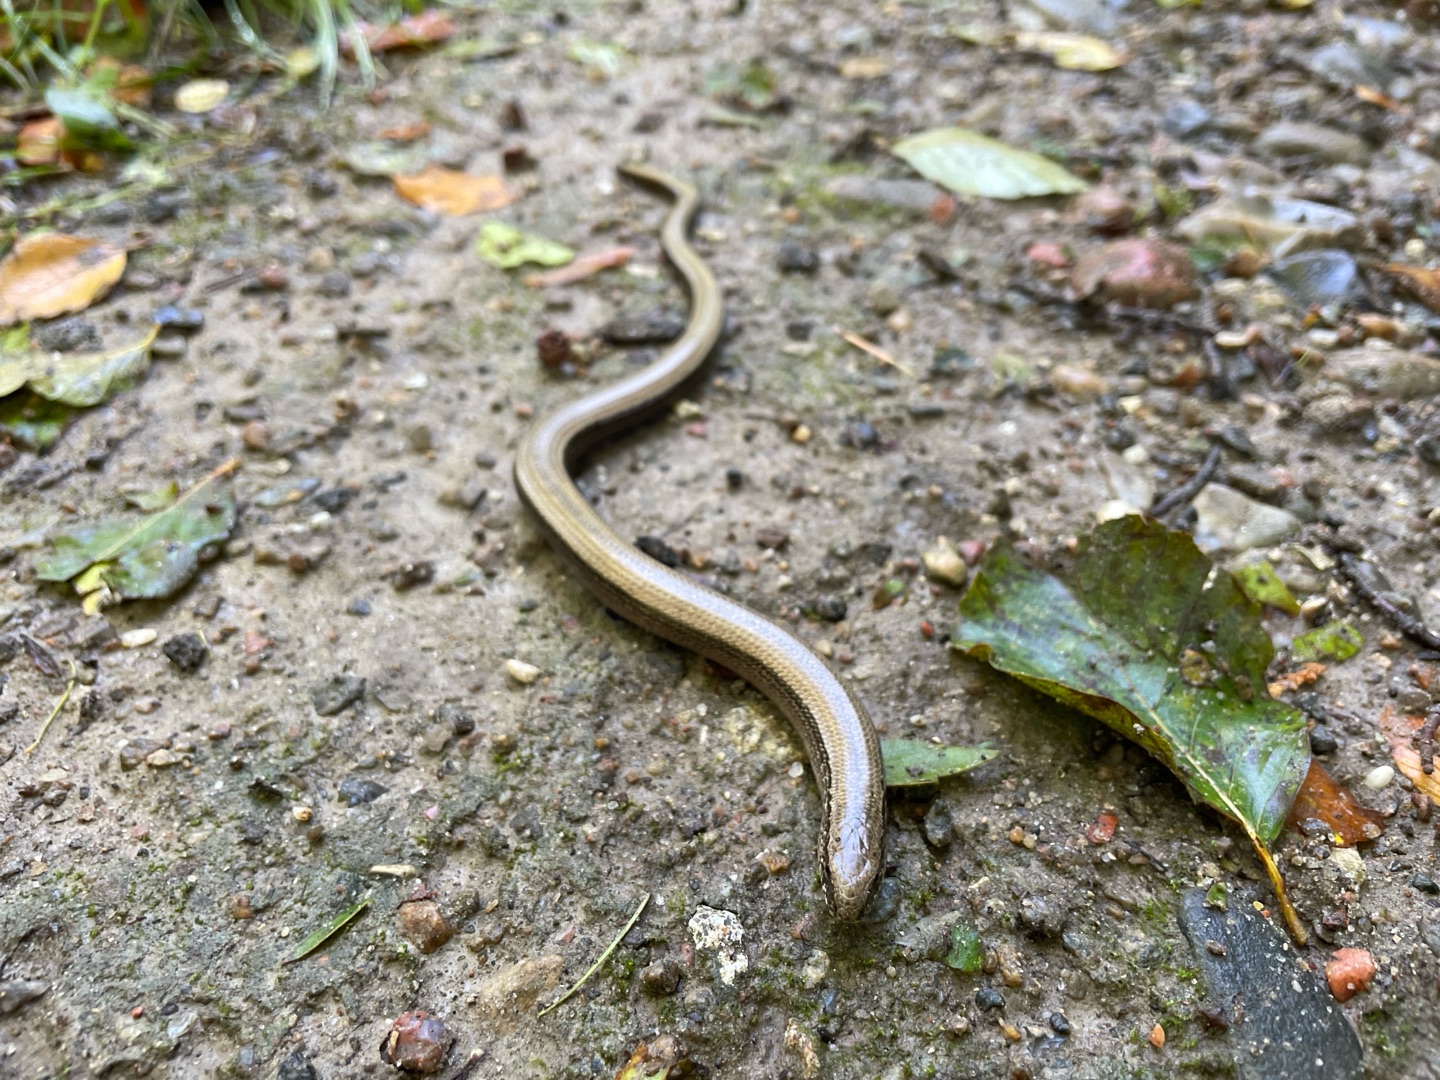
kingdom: Animalia
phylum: Chordata
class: Squamata
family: Anguidae
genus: Anguis
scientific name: Anguis fragilis
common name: Stålorm
